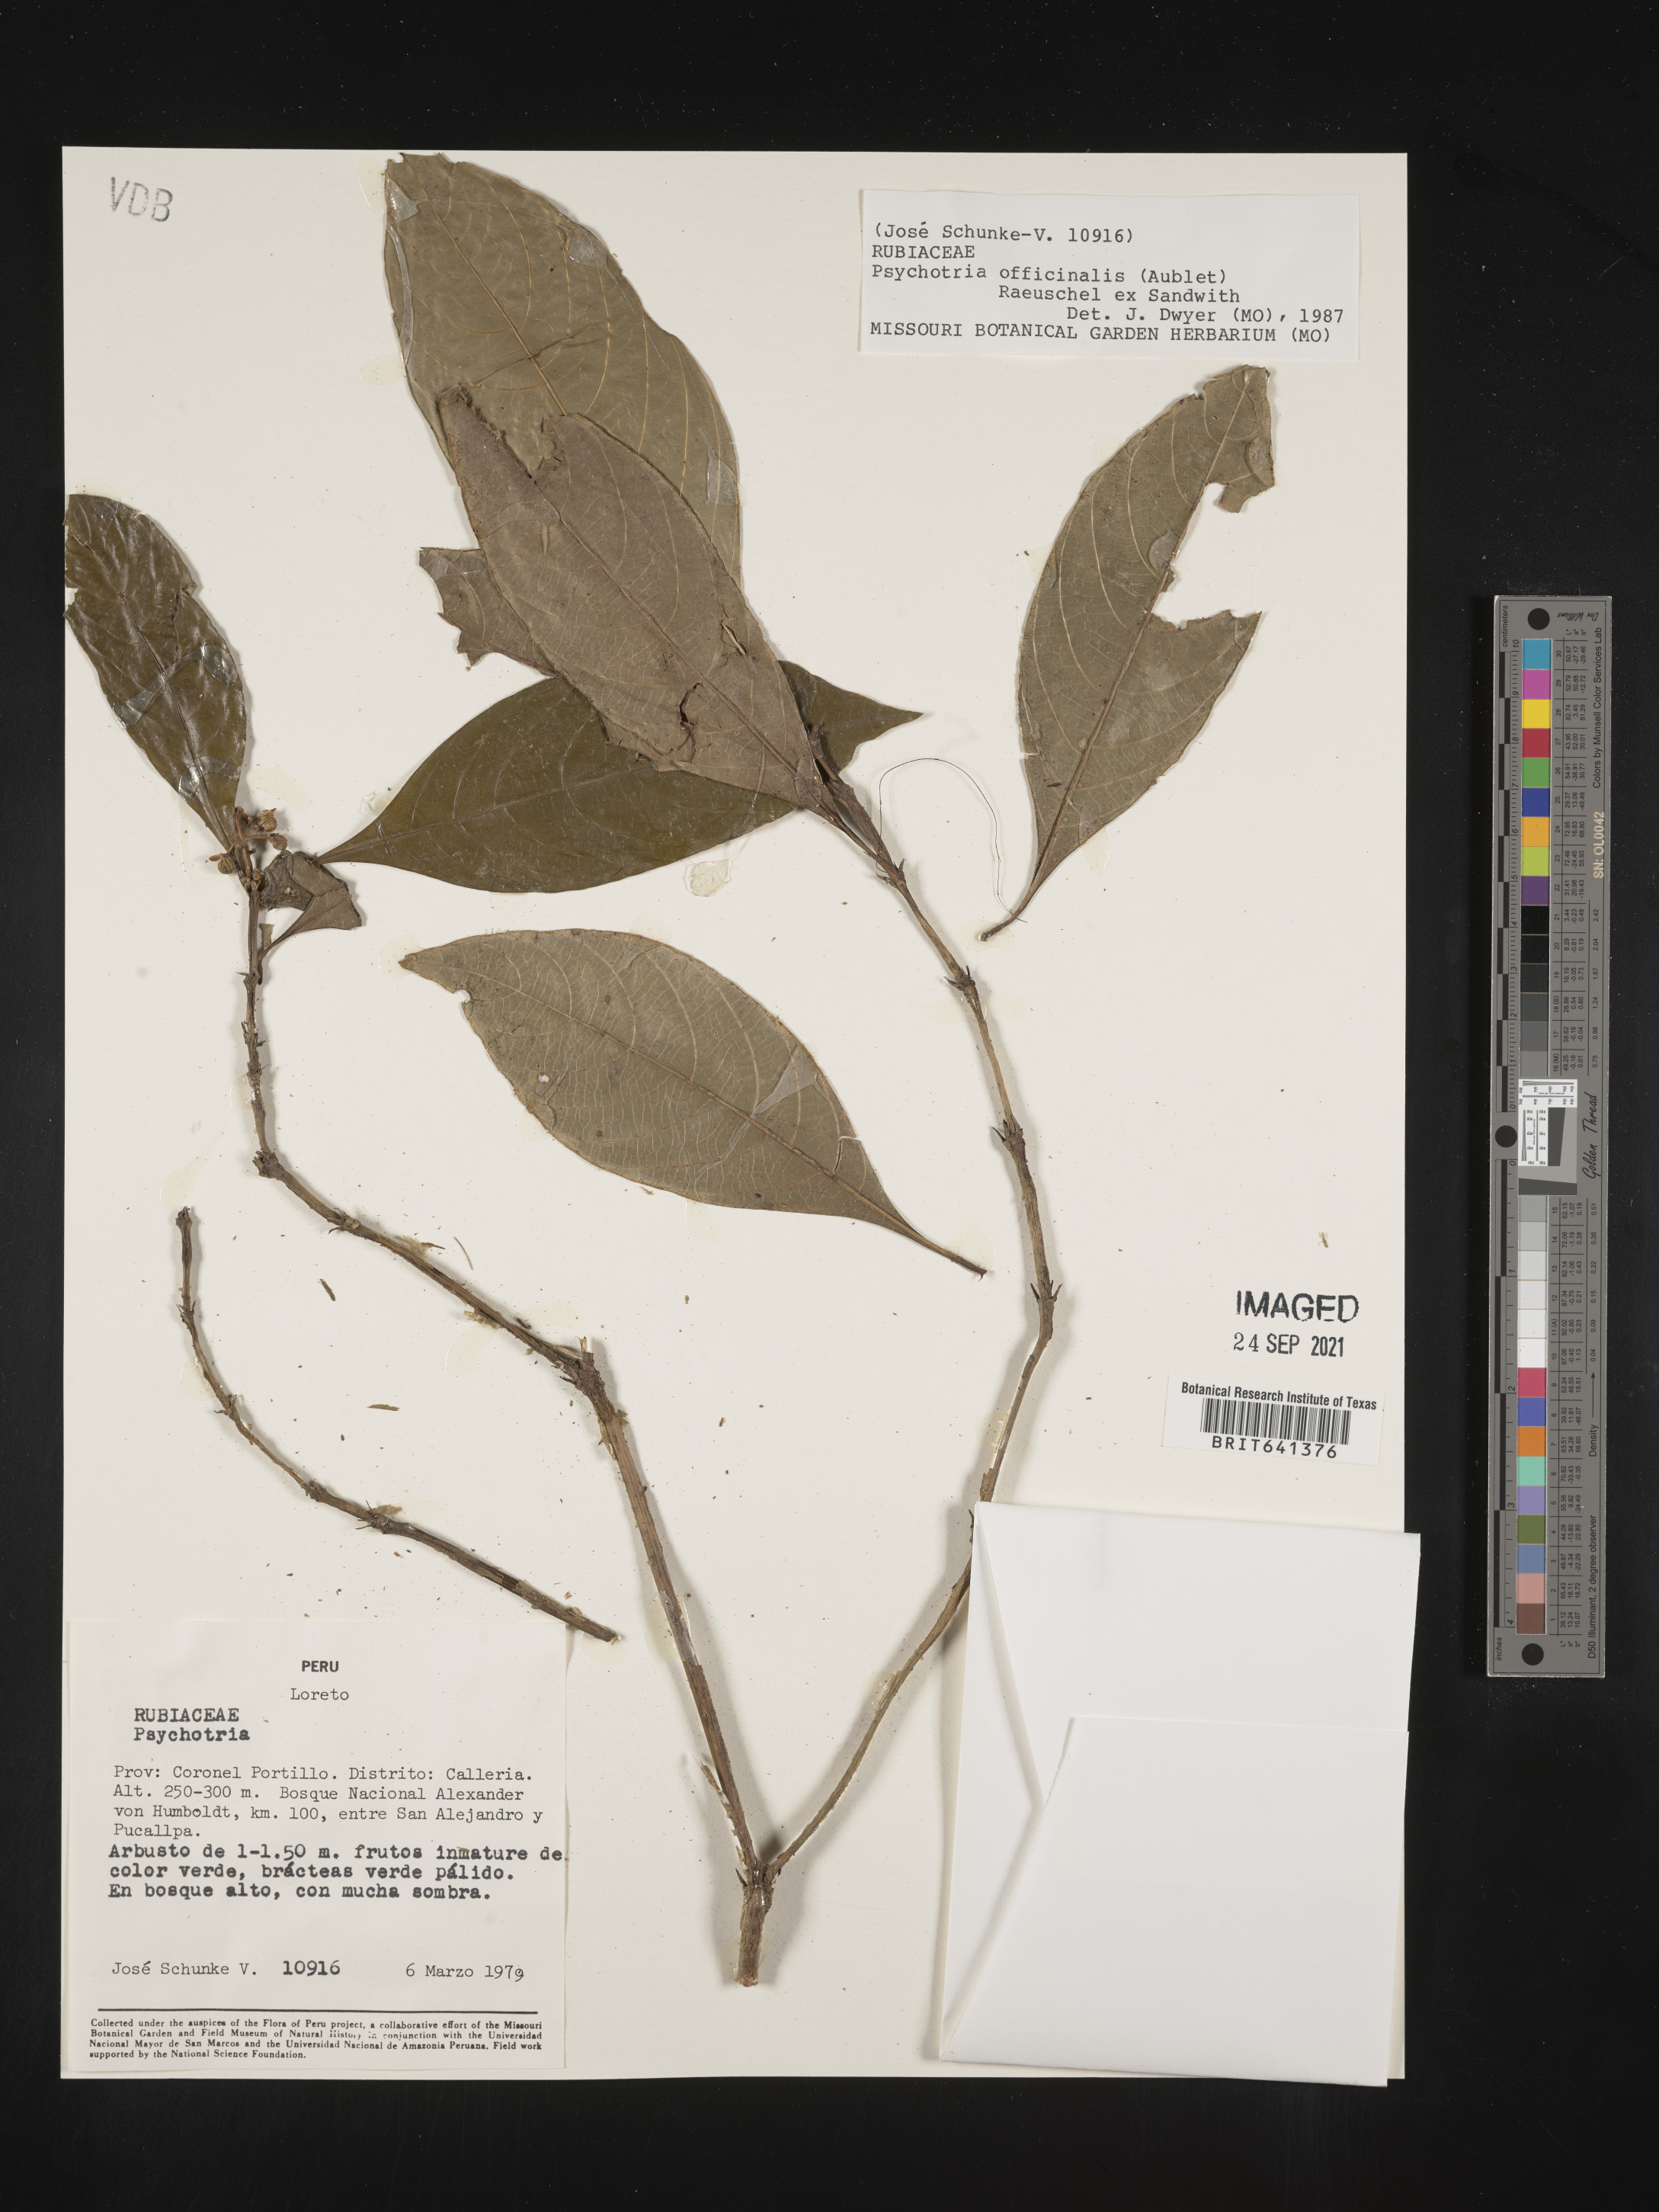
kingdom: Plantae
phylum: Tracheophyta
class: Magnoliopsida
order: Gentianales
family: Rubiaceae
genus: Psychotria
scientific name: Psychotria
